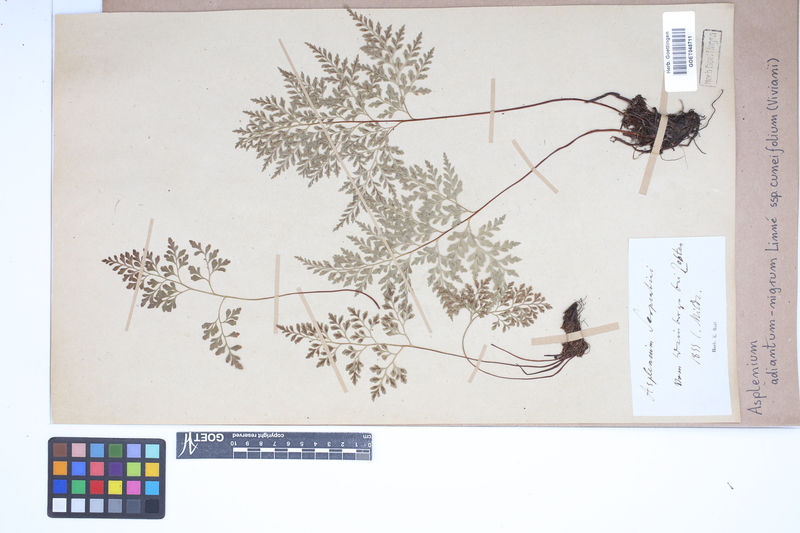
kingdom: Plantae
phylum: Tracheophyta
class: Polypodiopsida
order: Polypodiales
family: Aspleniaceae
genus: Asplenium
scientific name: Asplenium cuneifolium
